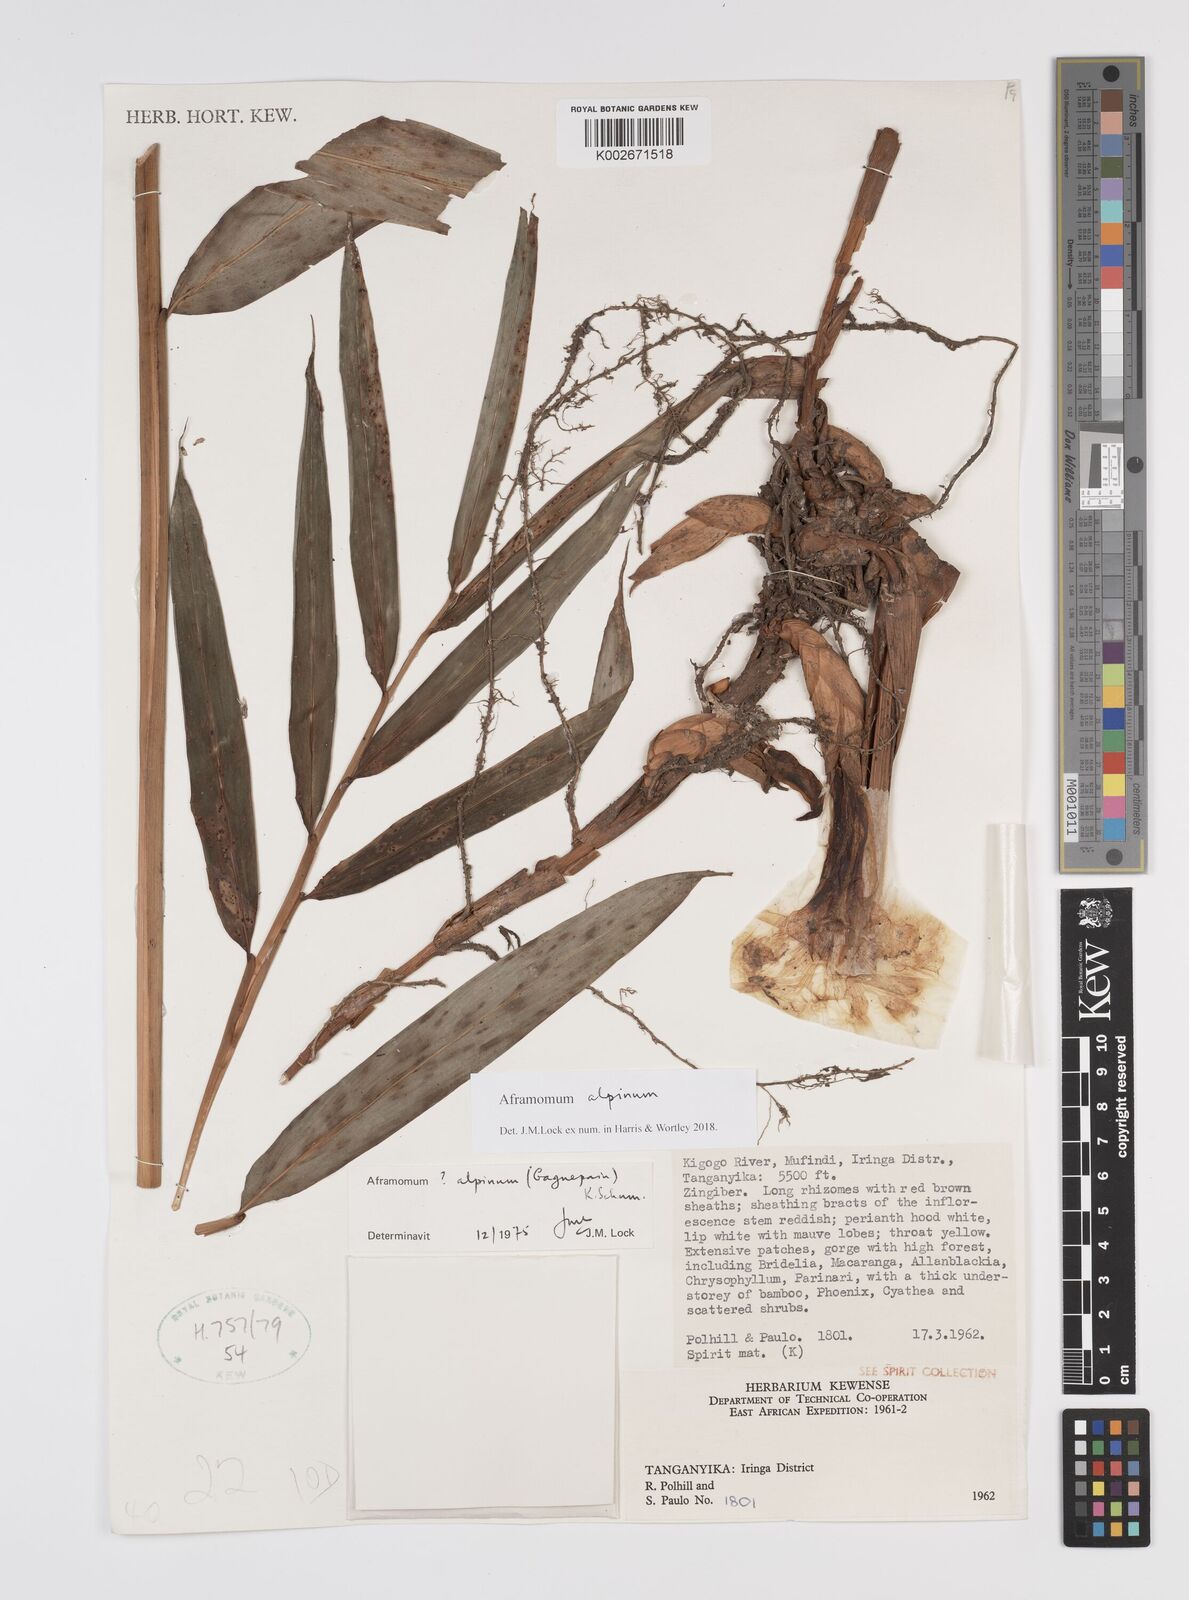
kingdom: Plantae
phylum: Tracheophyta
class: Liliopsida
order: Zingiberales
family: Zingiberaceae
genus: Aframomum
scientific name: Aframomum alpinum
